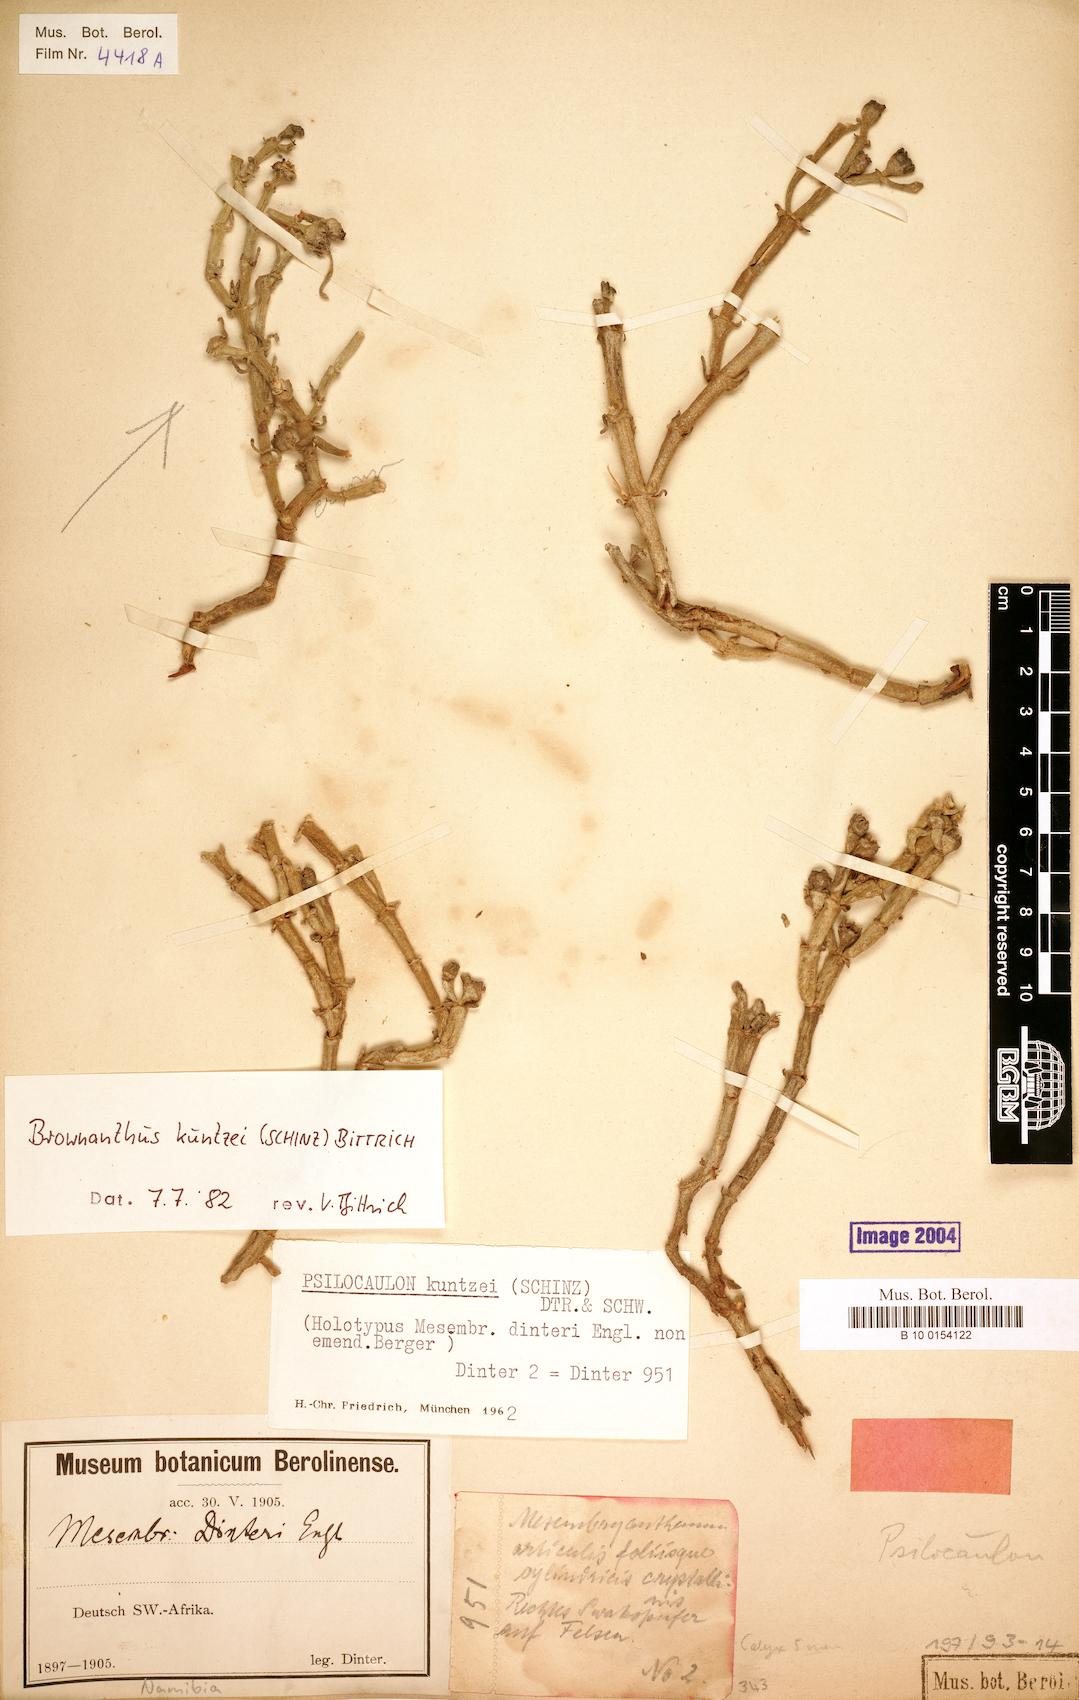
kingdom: Plantae
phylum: Tracheophyta
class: Magnoliopsida
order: Caryophyllales
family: Aizoaceae
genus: Mesembryanthemum
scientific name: Mesembryanthemum kuntzei
